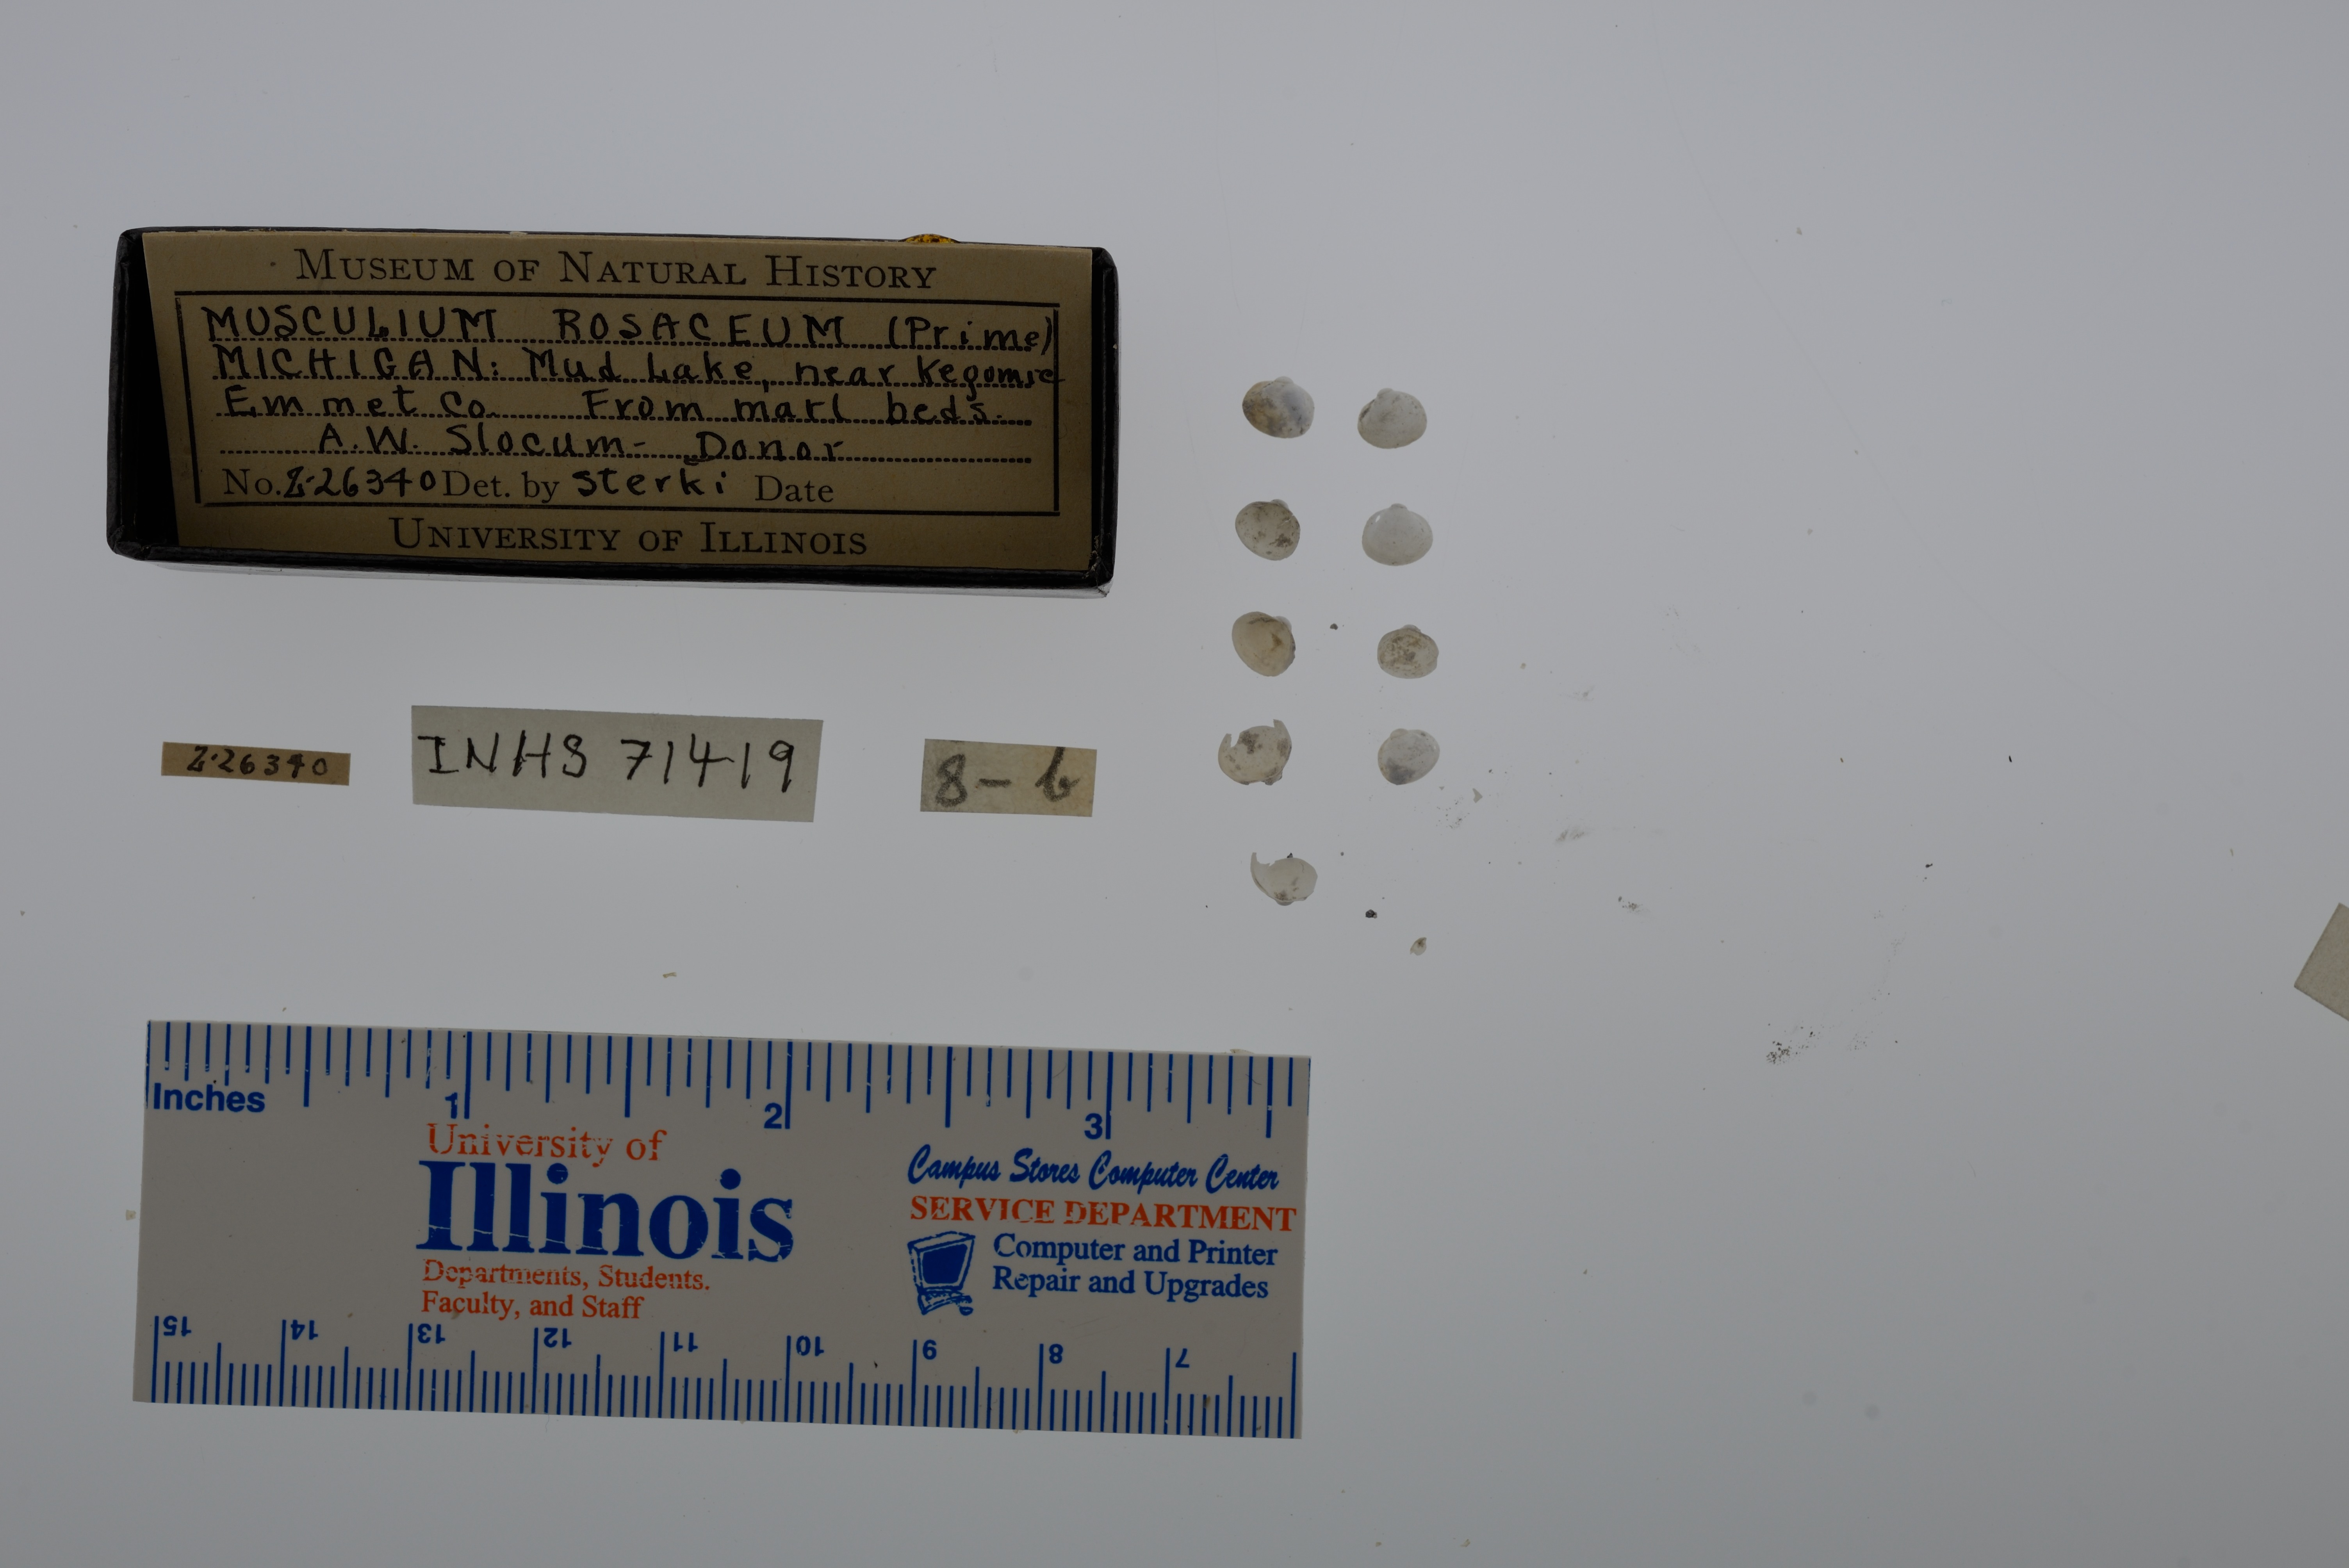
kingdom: Animalia
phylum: Mollusca
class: Bivalvia
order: Sphaeriida
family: Sphaeriidae
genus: Musculium
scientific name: Musculium lacustre
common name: Lake fingernailclam
